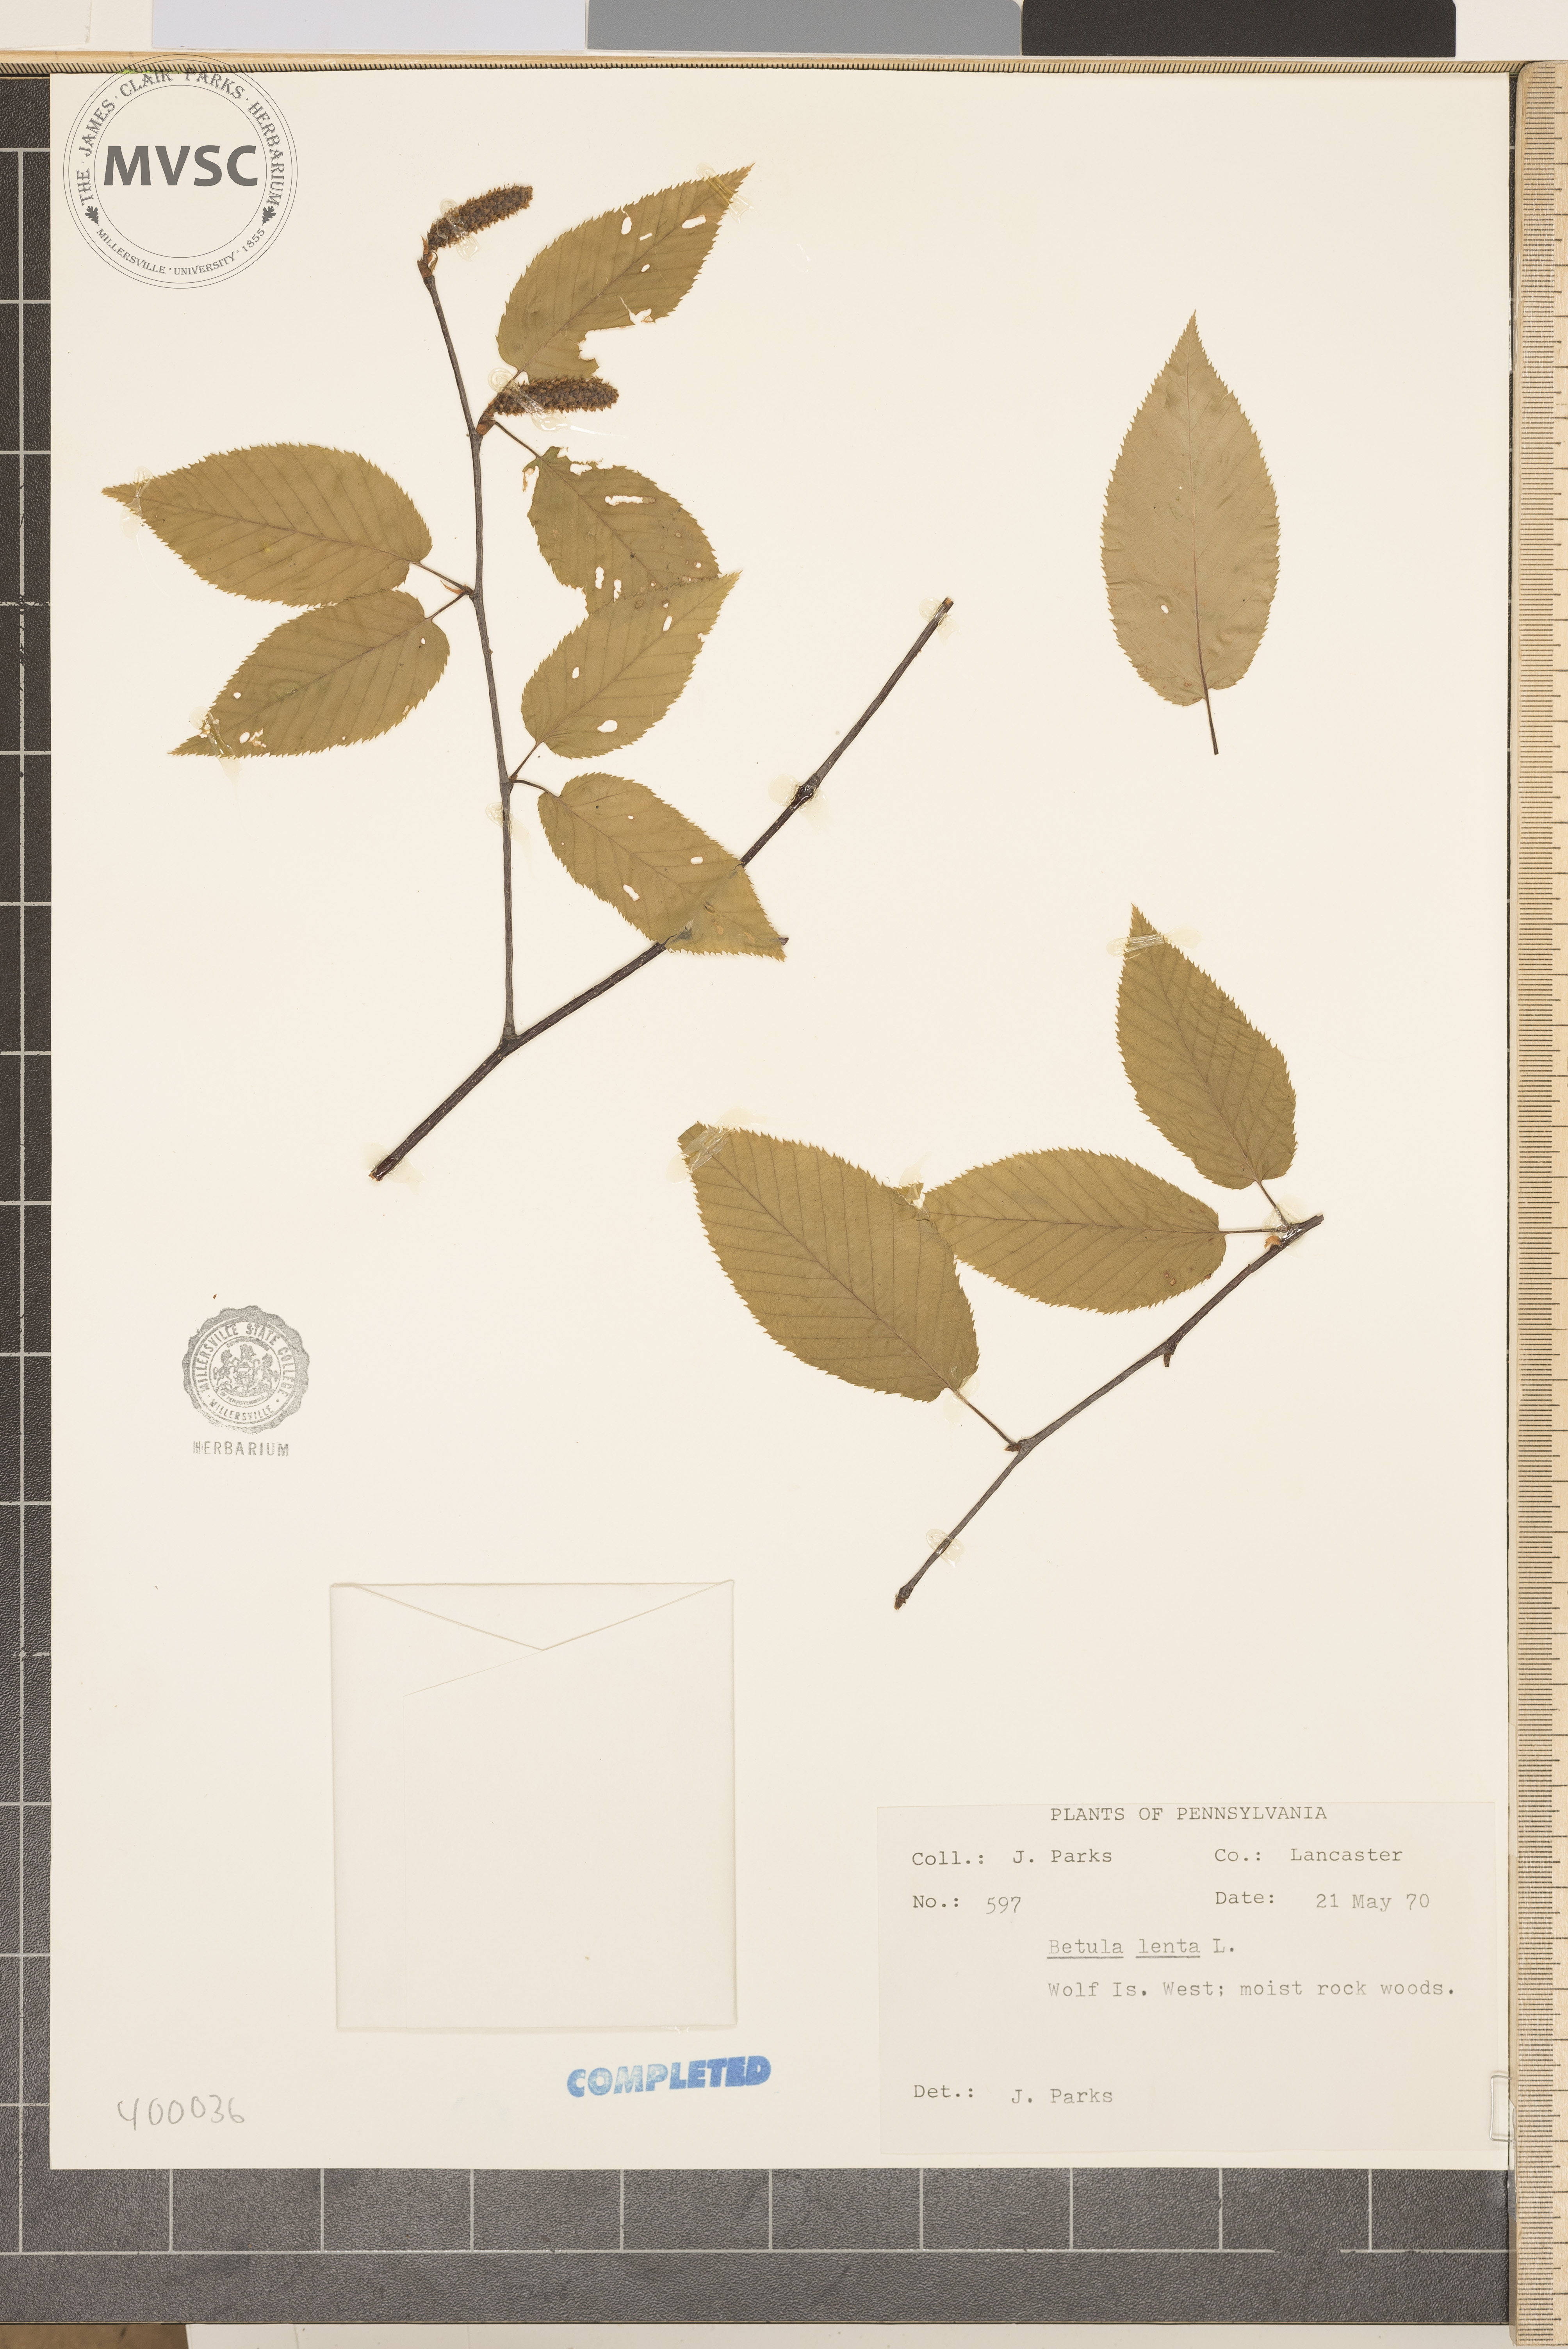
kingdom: Plantae
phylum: Tracheophyta
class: Magnoliopsida
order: Fagales
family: Betulaceae
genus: Betula
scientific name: Betula lenta
